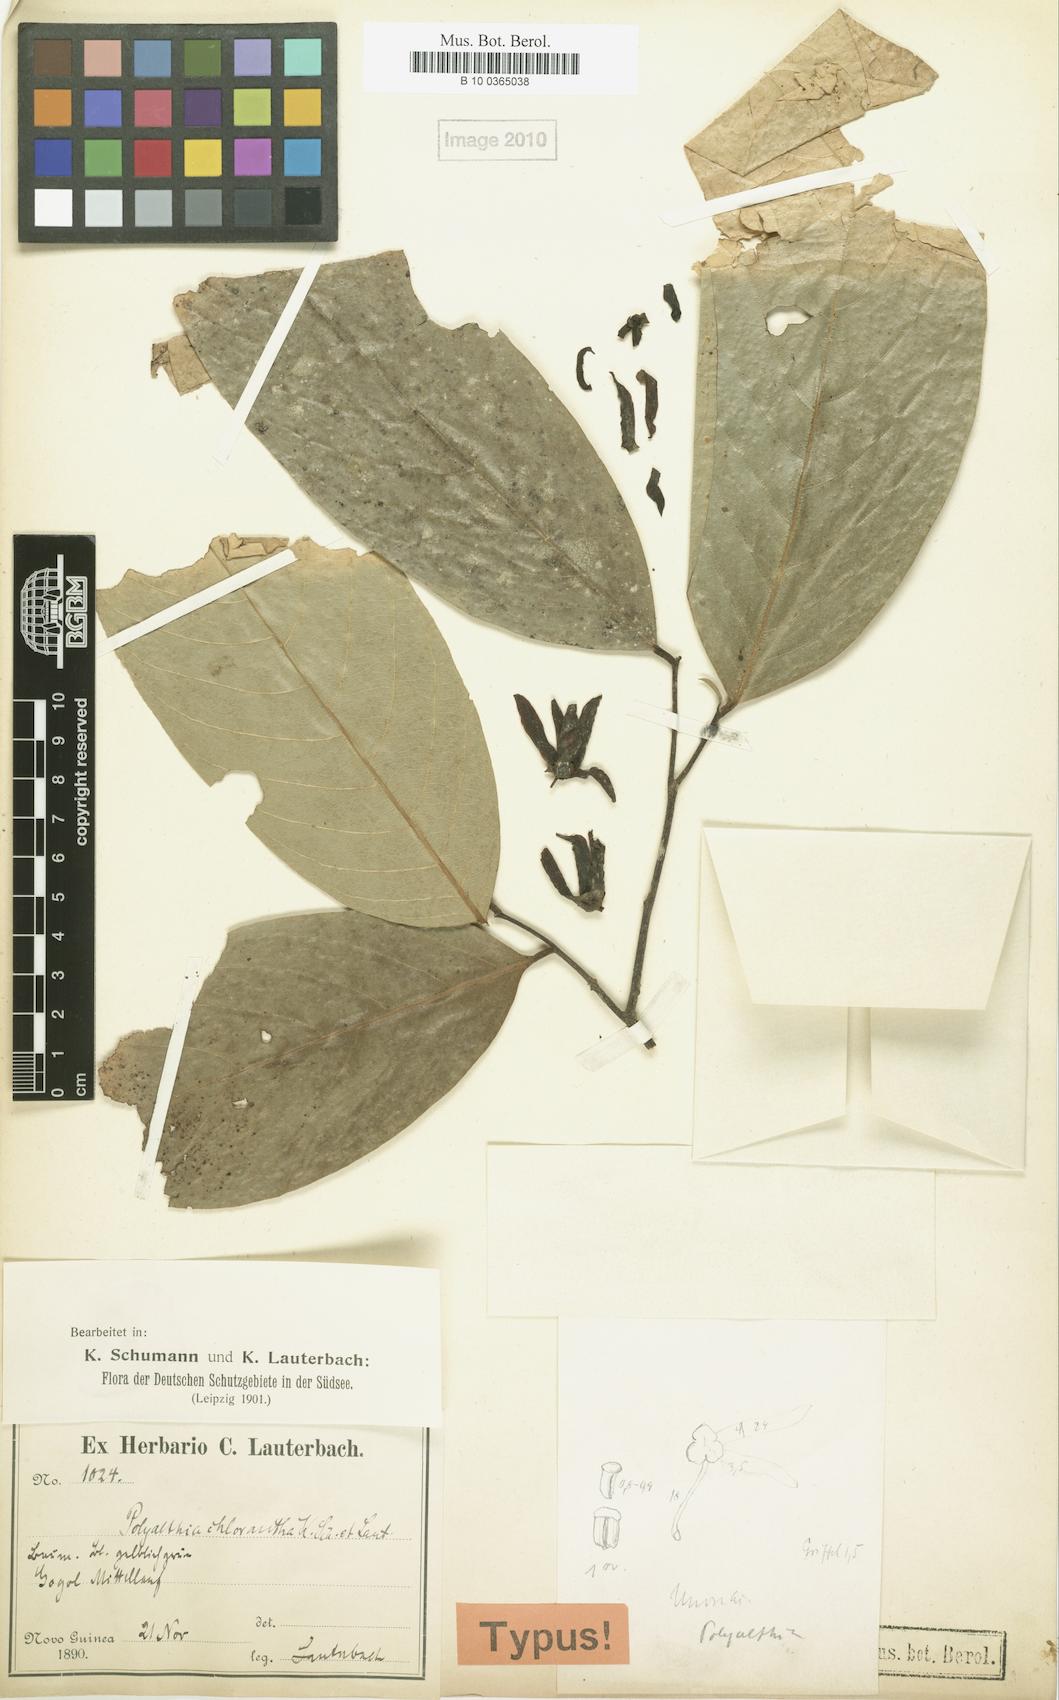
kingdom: Plantae
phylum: Tracheophyta
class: Magnoliopsida
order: Magnoliales
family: Annonaceae
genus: Polyalthia
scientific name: Polyalthia chlorantha
